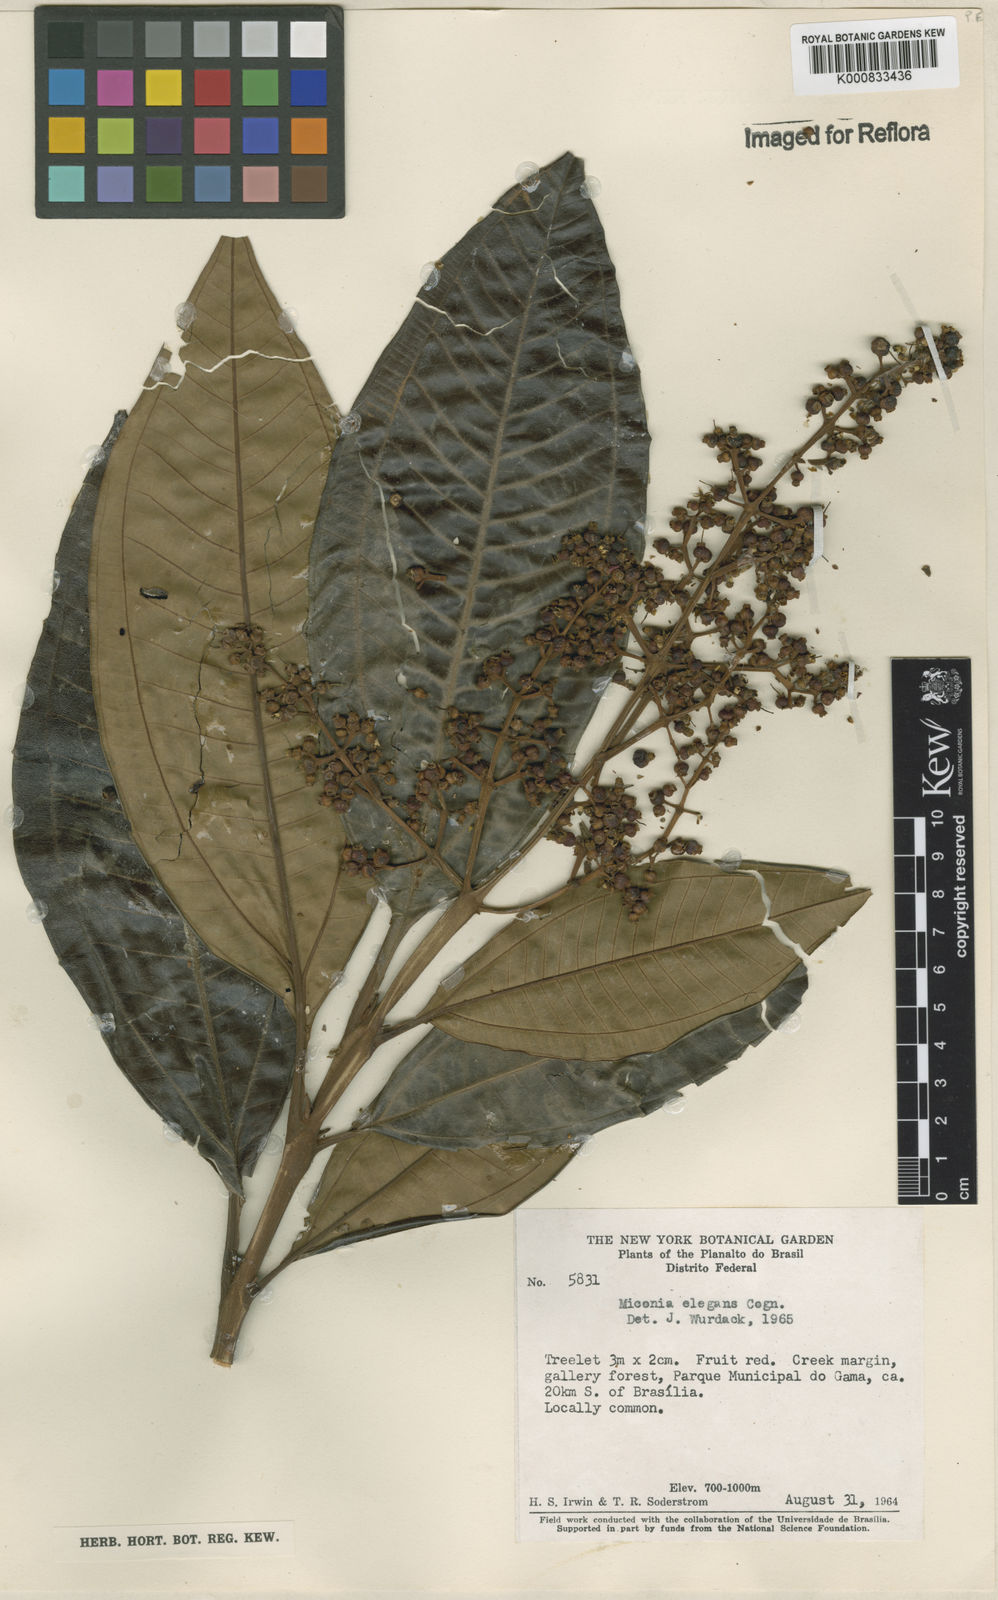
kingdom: Plantae
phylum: Tracheophyta
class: Magnoliopsida
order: Myrtales
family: Melastomataceae
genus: Miconia
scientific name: Miconia elegans
